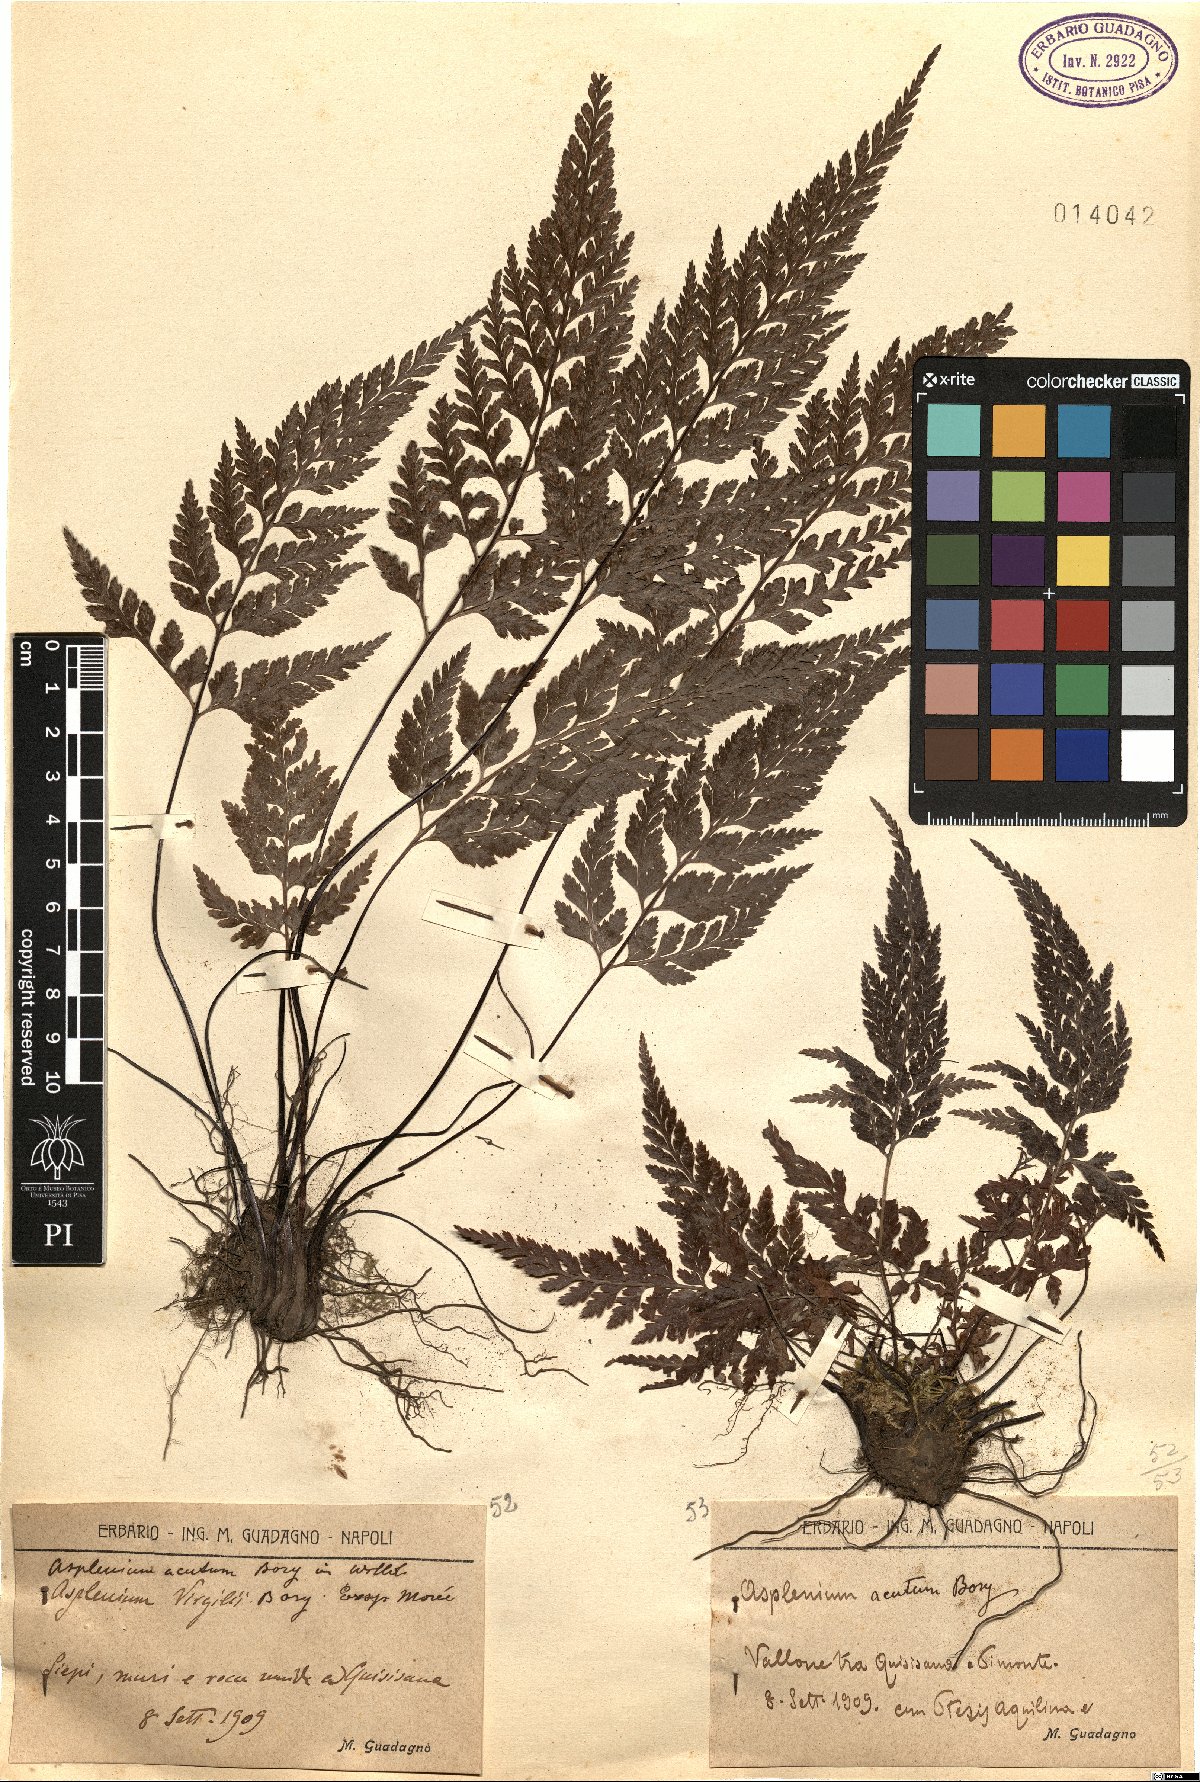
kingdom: Plantae
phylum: Tracheophyta
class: Polypodiopsida
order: Polypodiales
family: Aspleniaceae
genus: Asplenium
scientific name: Asplenium onopteris
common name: Irish spleenwort
